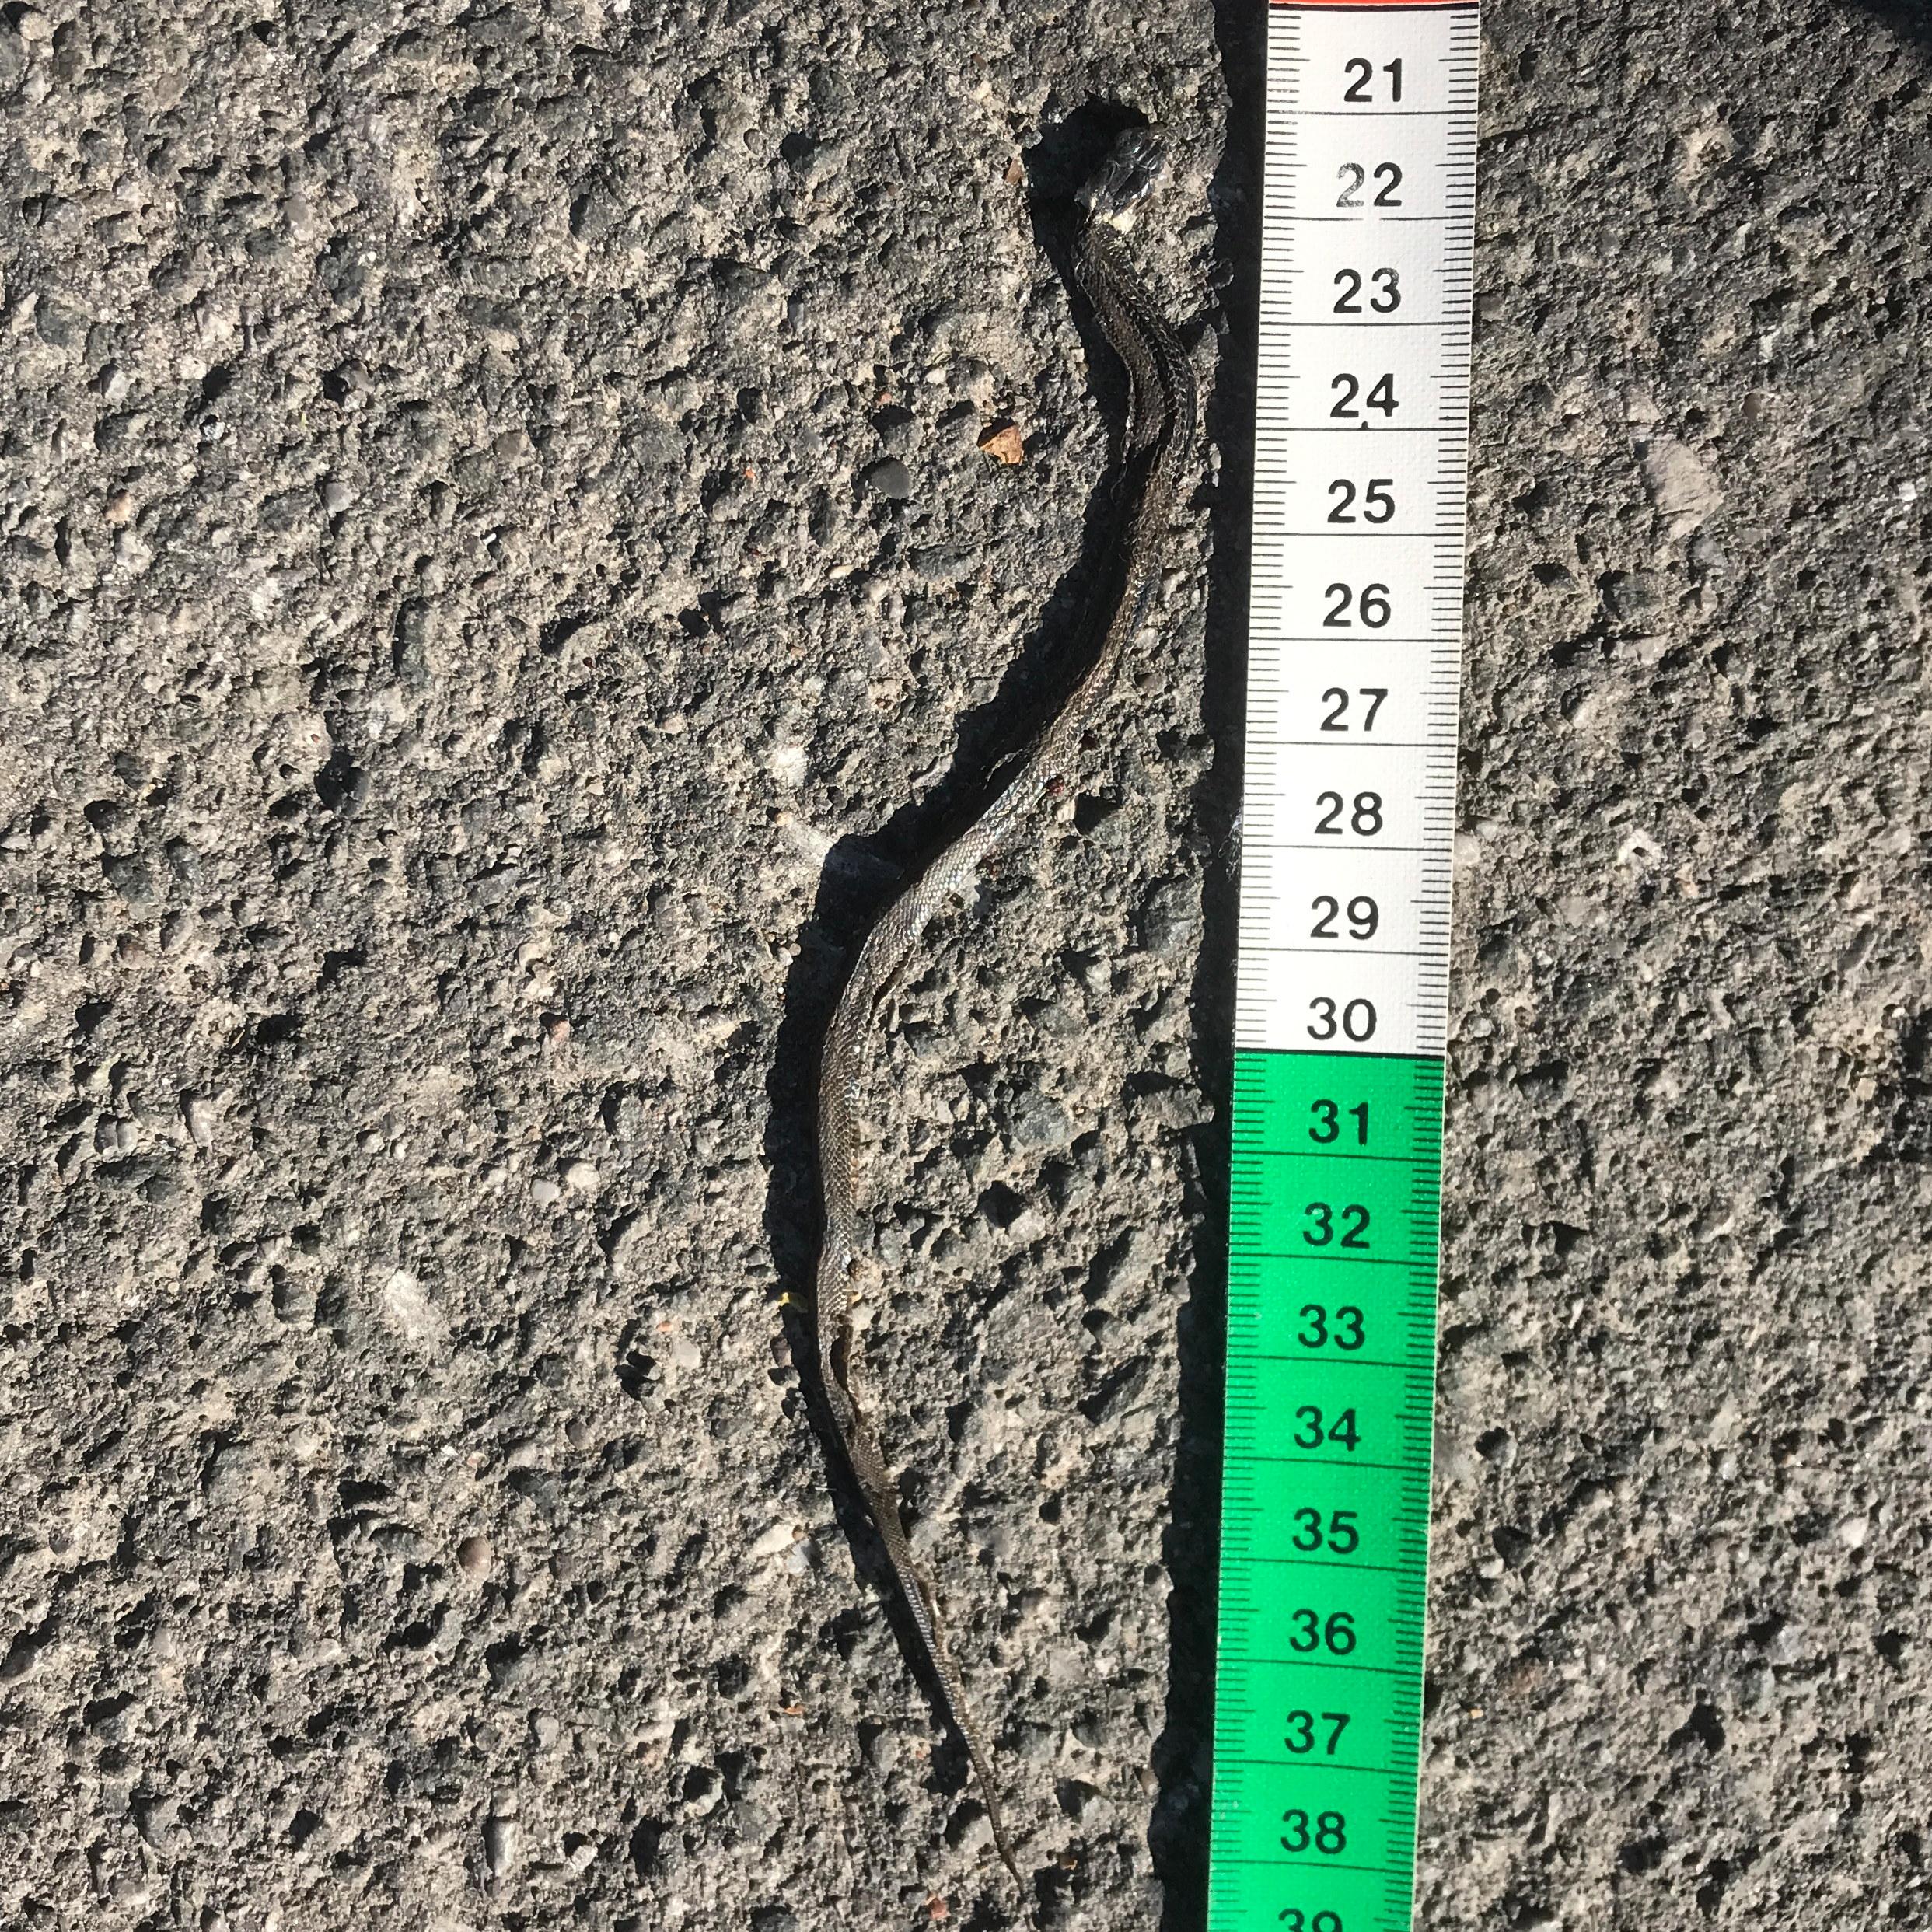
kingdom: Animalia
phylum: Chordata
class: Squamata
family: Colubridae
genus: Natrix
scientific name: Natrix natrix
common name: Grass snake
